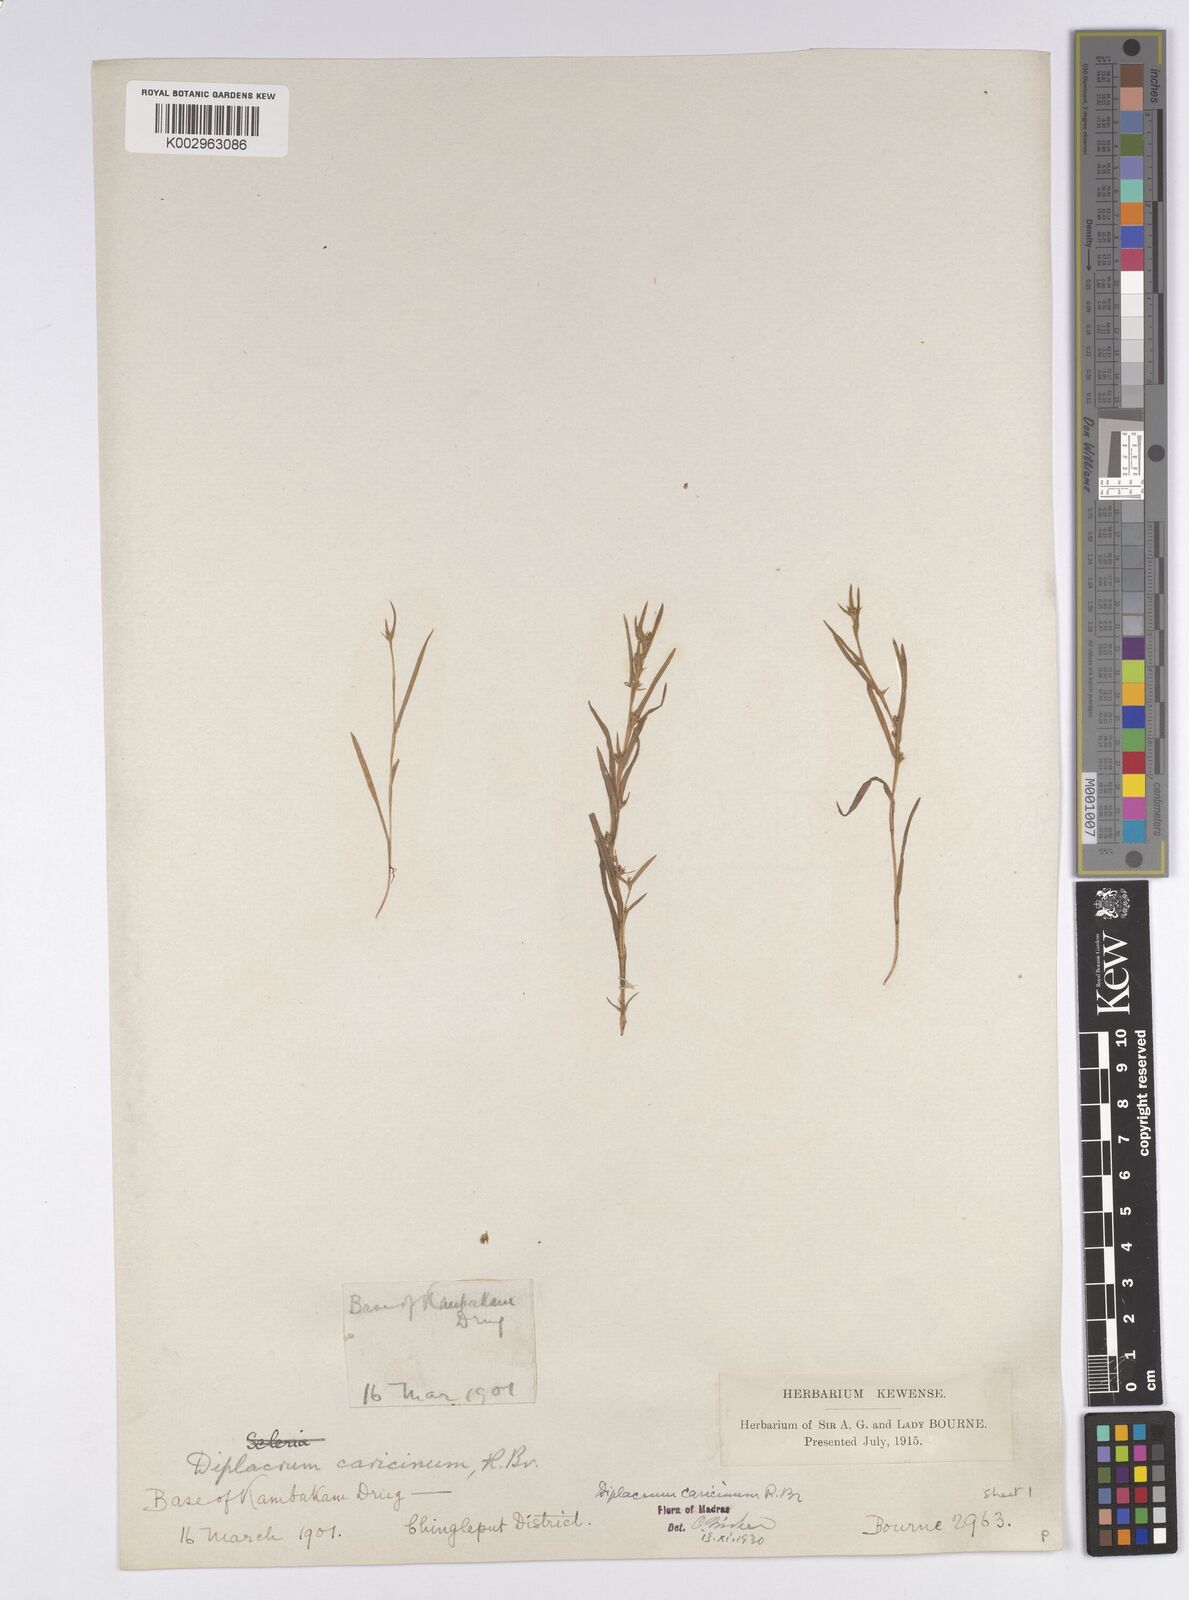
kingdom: Plantae
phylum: Tracheophyta
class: Liliopsida
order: Poales
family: Cyperaceae
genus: Diplacrum
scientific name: Diplacrum caricinum
